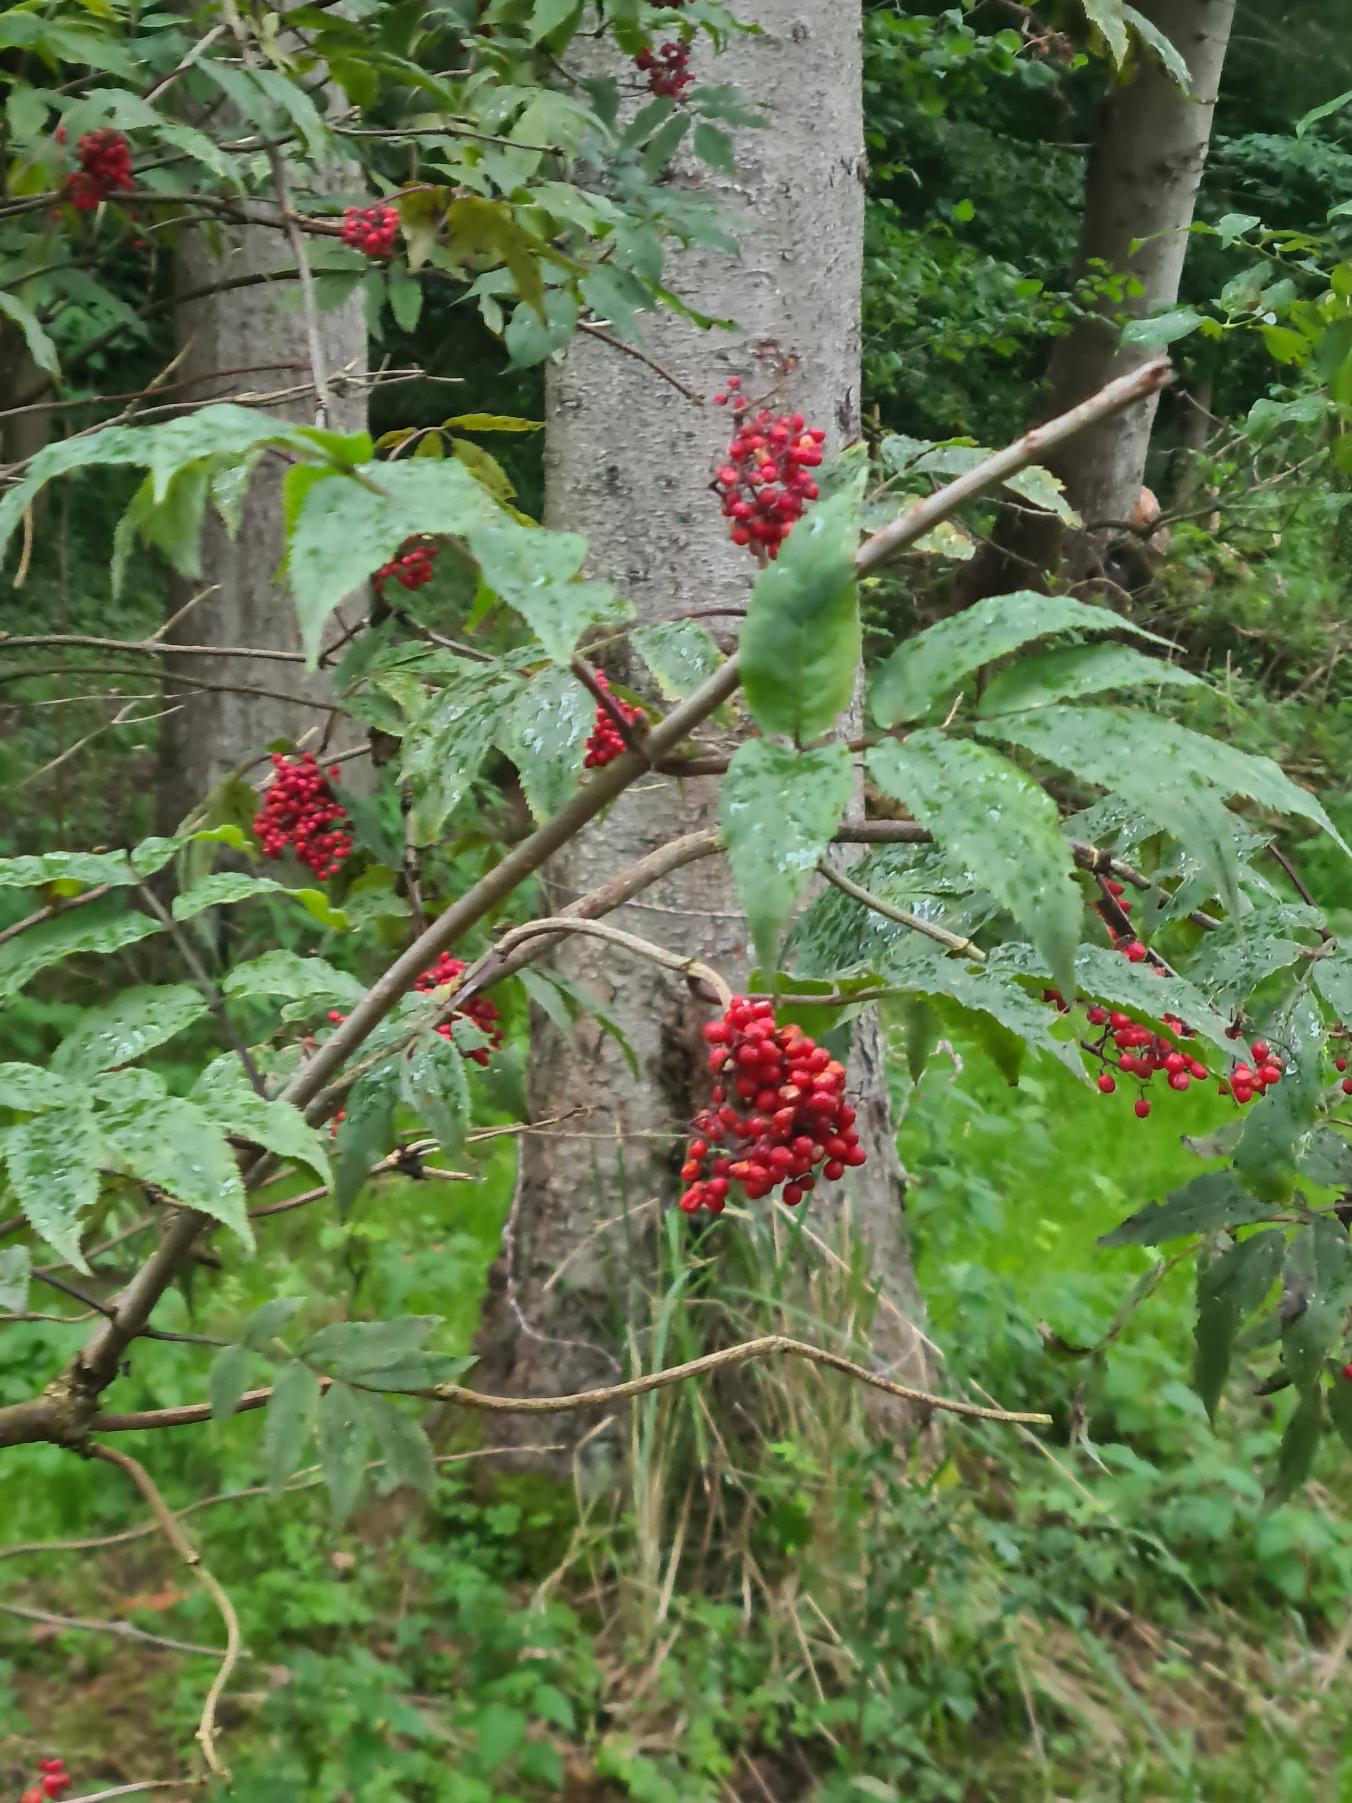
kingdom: Plantae
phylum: Tracheophyta
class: Magnoliopsida
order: Dipsacales
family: Viburnaceae
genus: Sambucus
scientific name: Sambucus racemosa
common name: Drue-hyld
